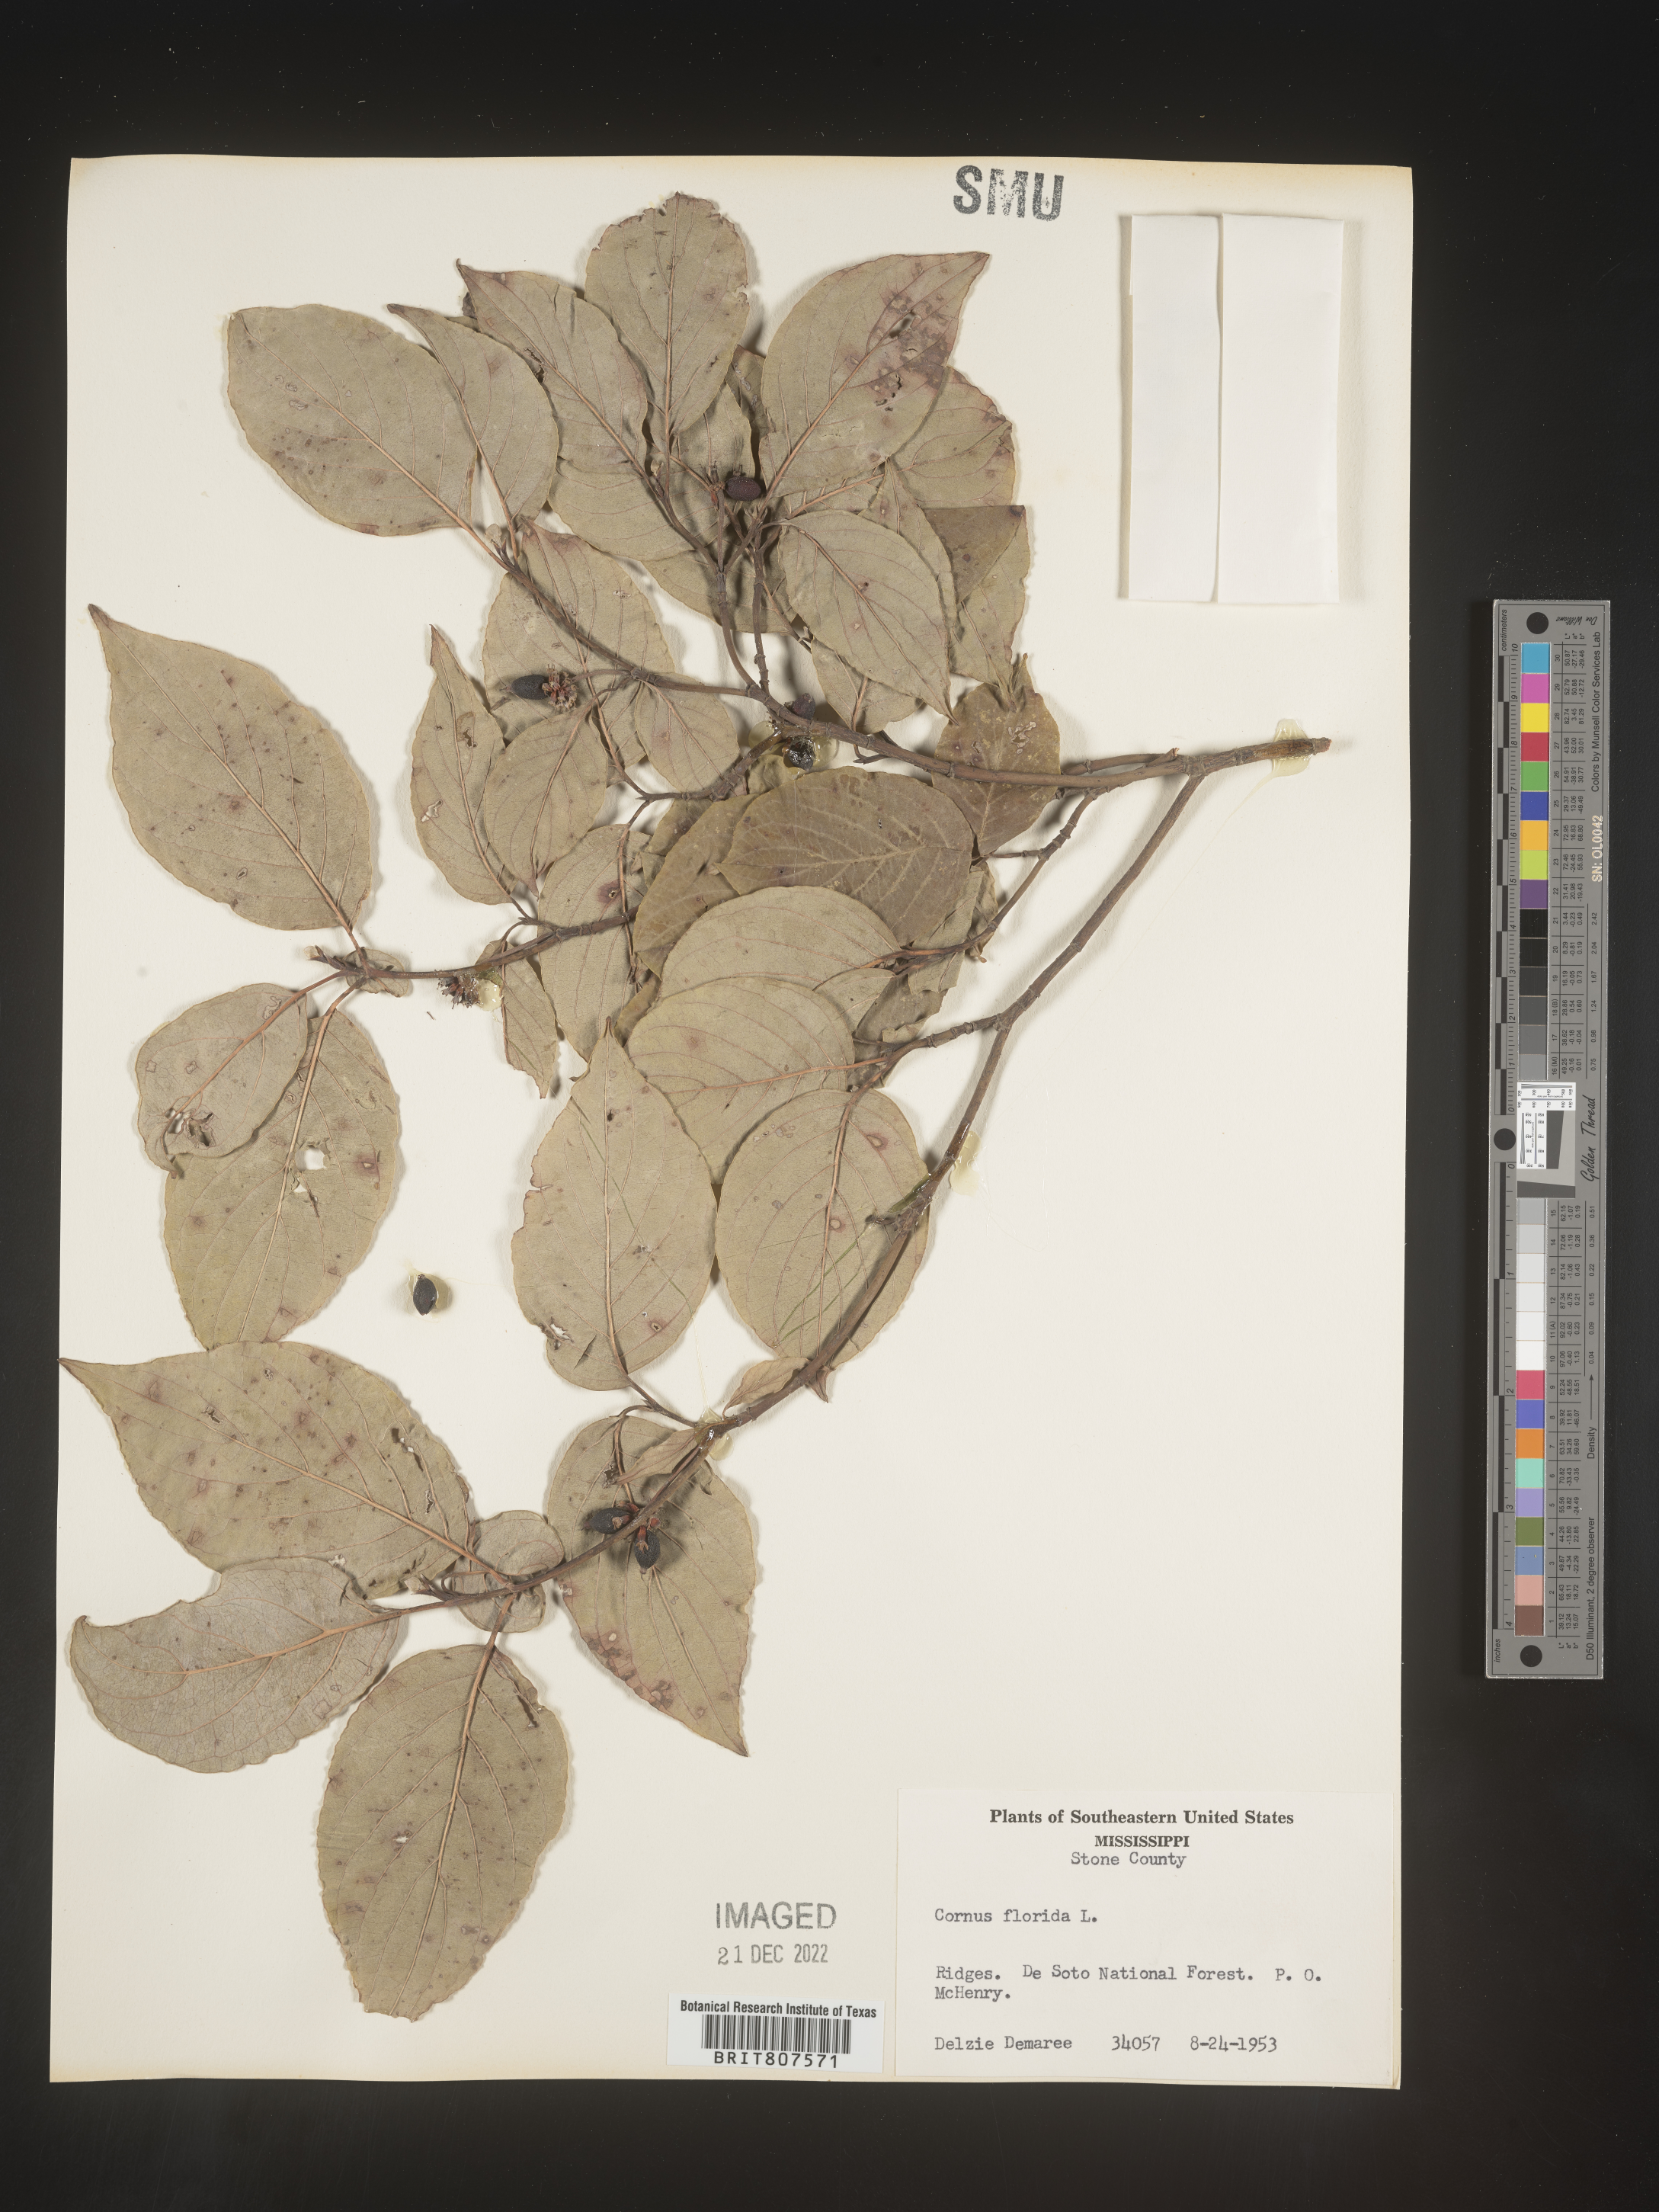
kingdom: Plantae
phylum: Tracheophyta
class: Magnoliopsida
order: Cornales
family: Cornaceae
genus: Cornus
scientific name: Cornus florida
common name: Flowering dogwood
